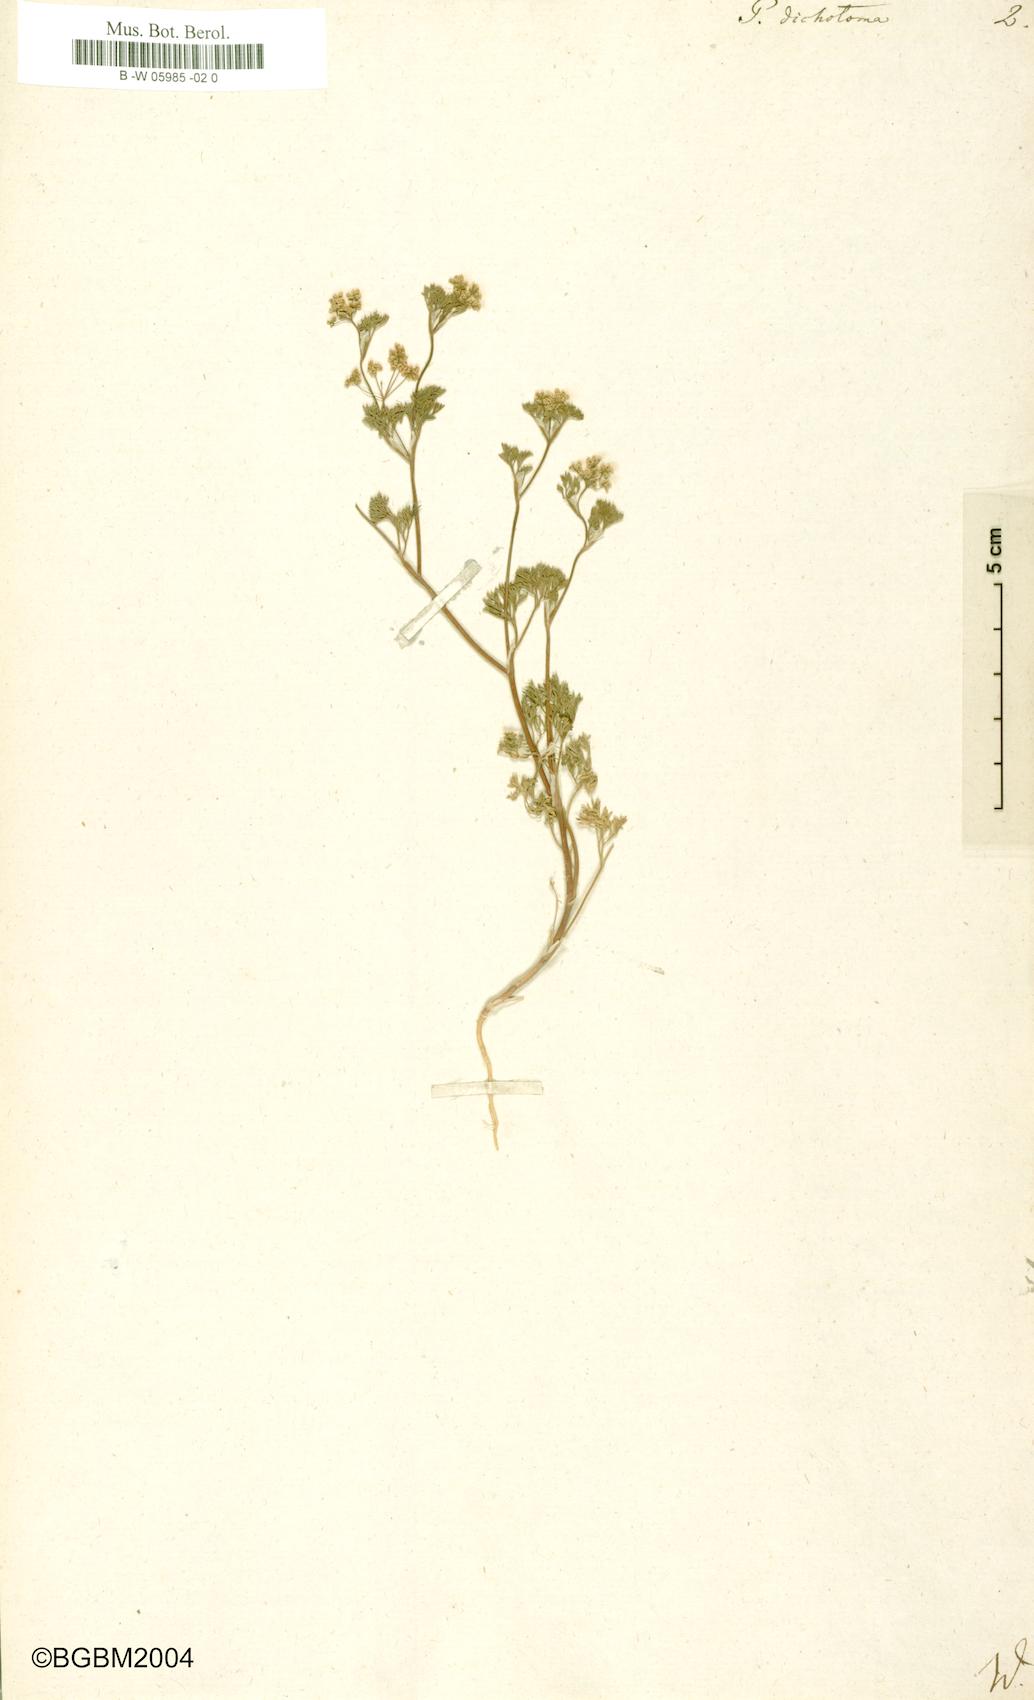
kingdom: Plantae
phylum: Tracheophyta
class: Magnoliopsida
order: Apiales
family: Apiaceae
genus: Stoibrax
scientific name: Stoibrax dichotomum
